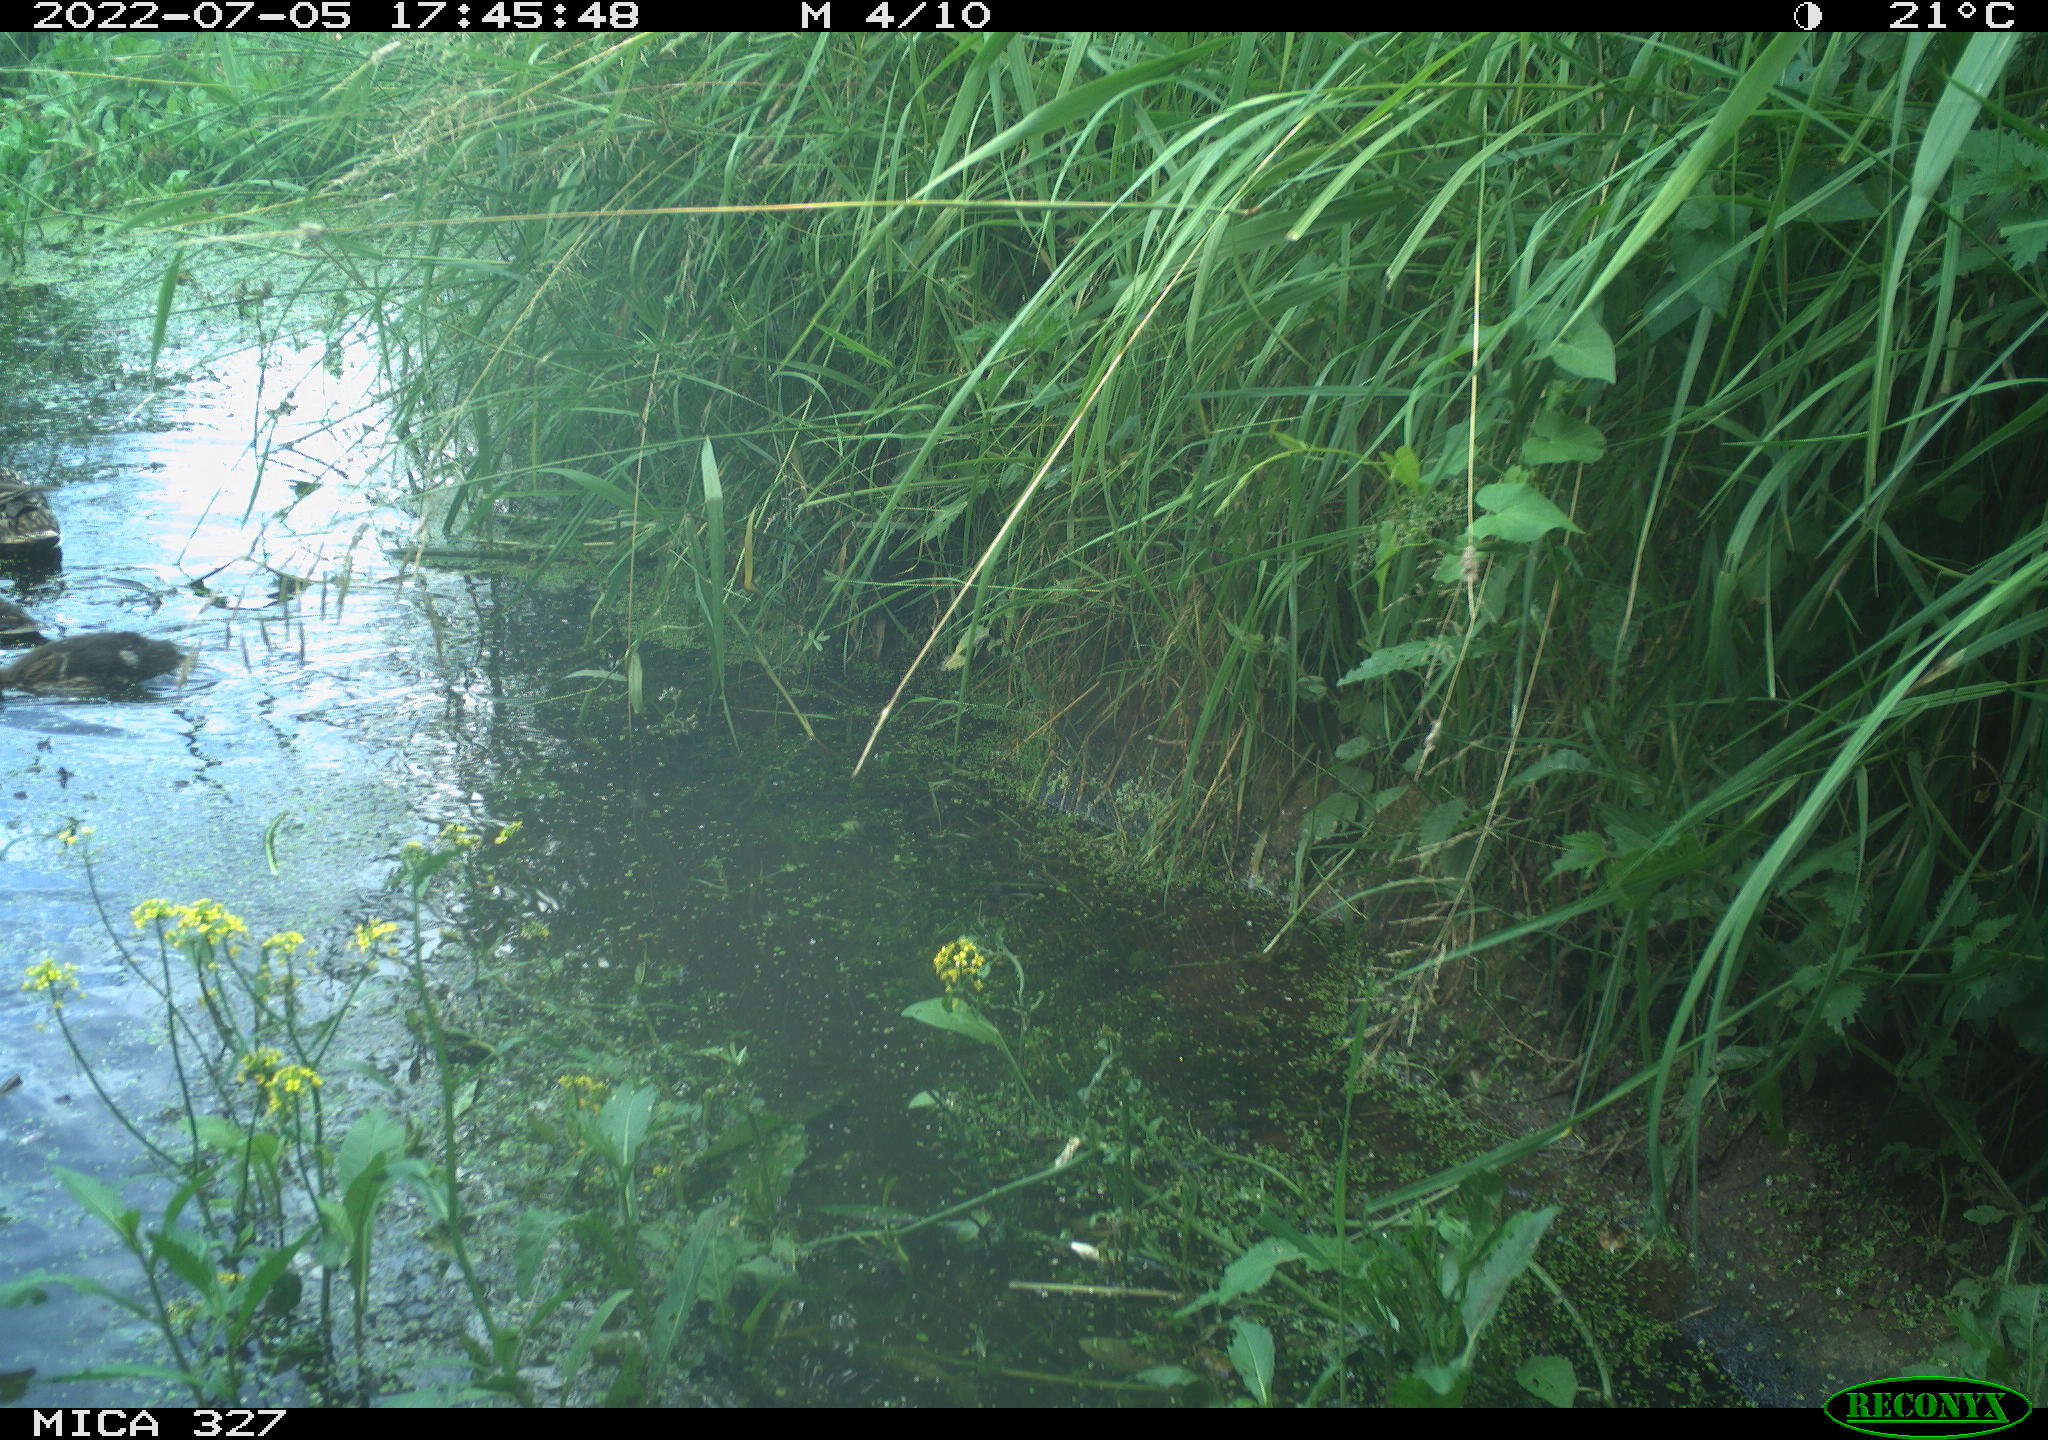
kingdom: Animalia
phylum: Chordata
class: Aves
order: Anseriformes
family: Anatidae
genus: Anas
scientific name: Anas platyrhynchos
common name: Mallard
